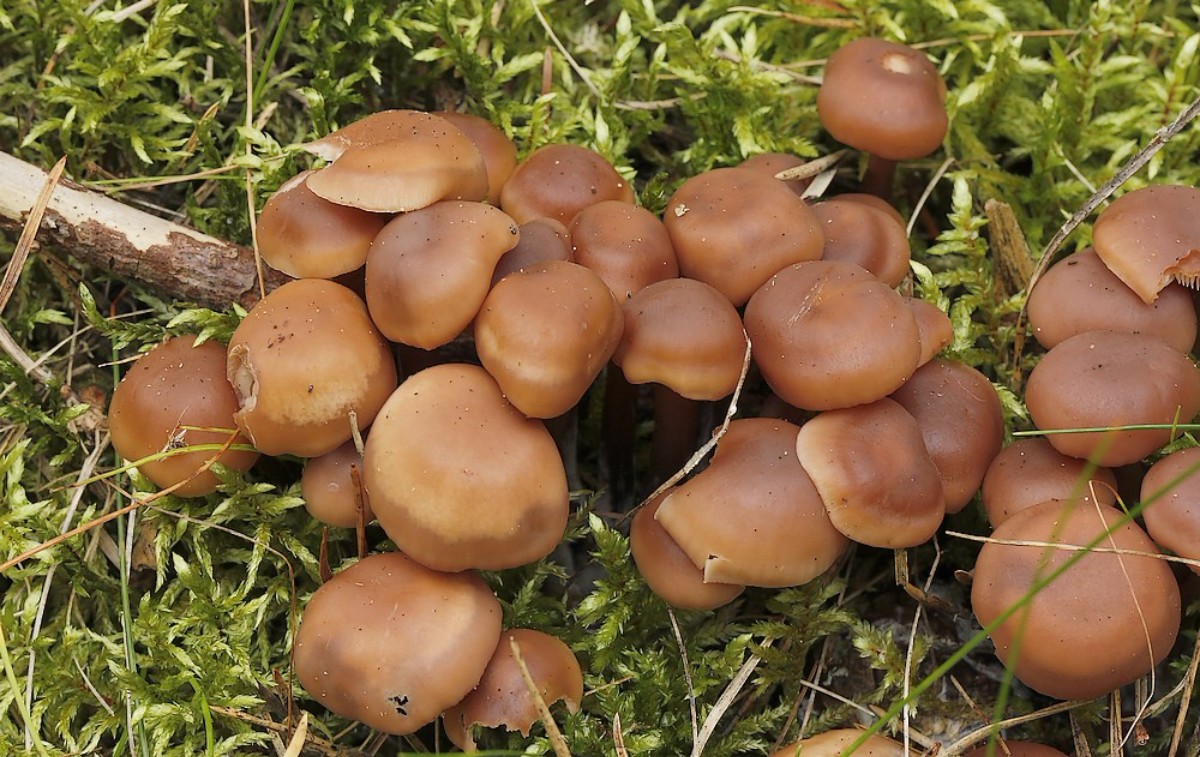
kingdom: Fungi
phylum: Basidiomycota
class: Agaricomycetes
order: Agaricales
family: Omphalotaceae
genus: Connopus
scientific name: Connopus acervatus
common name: tue-fladhat
